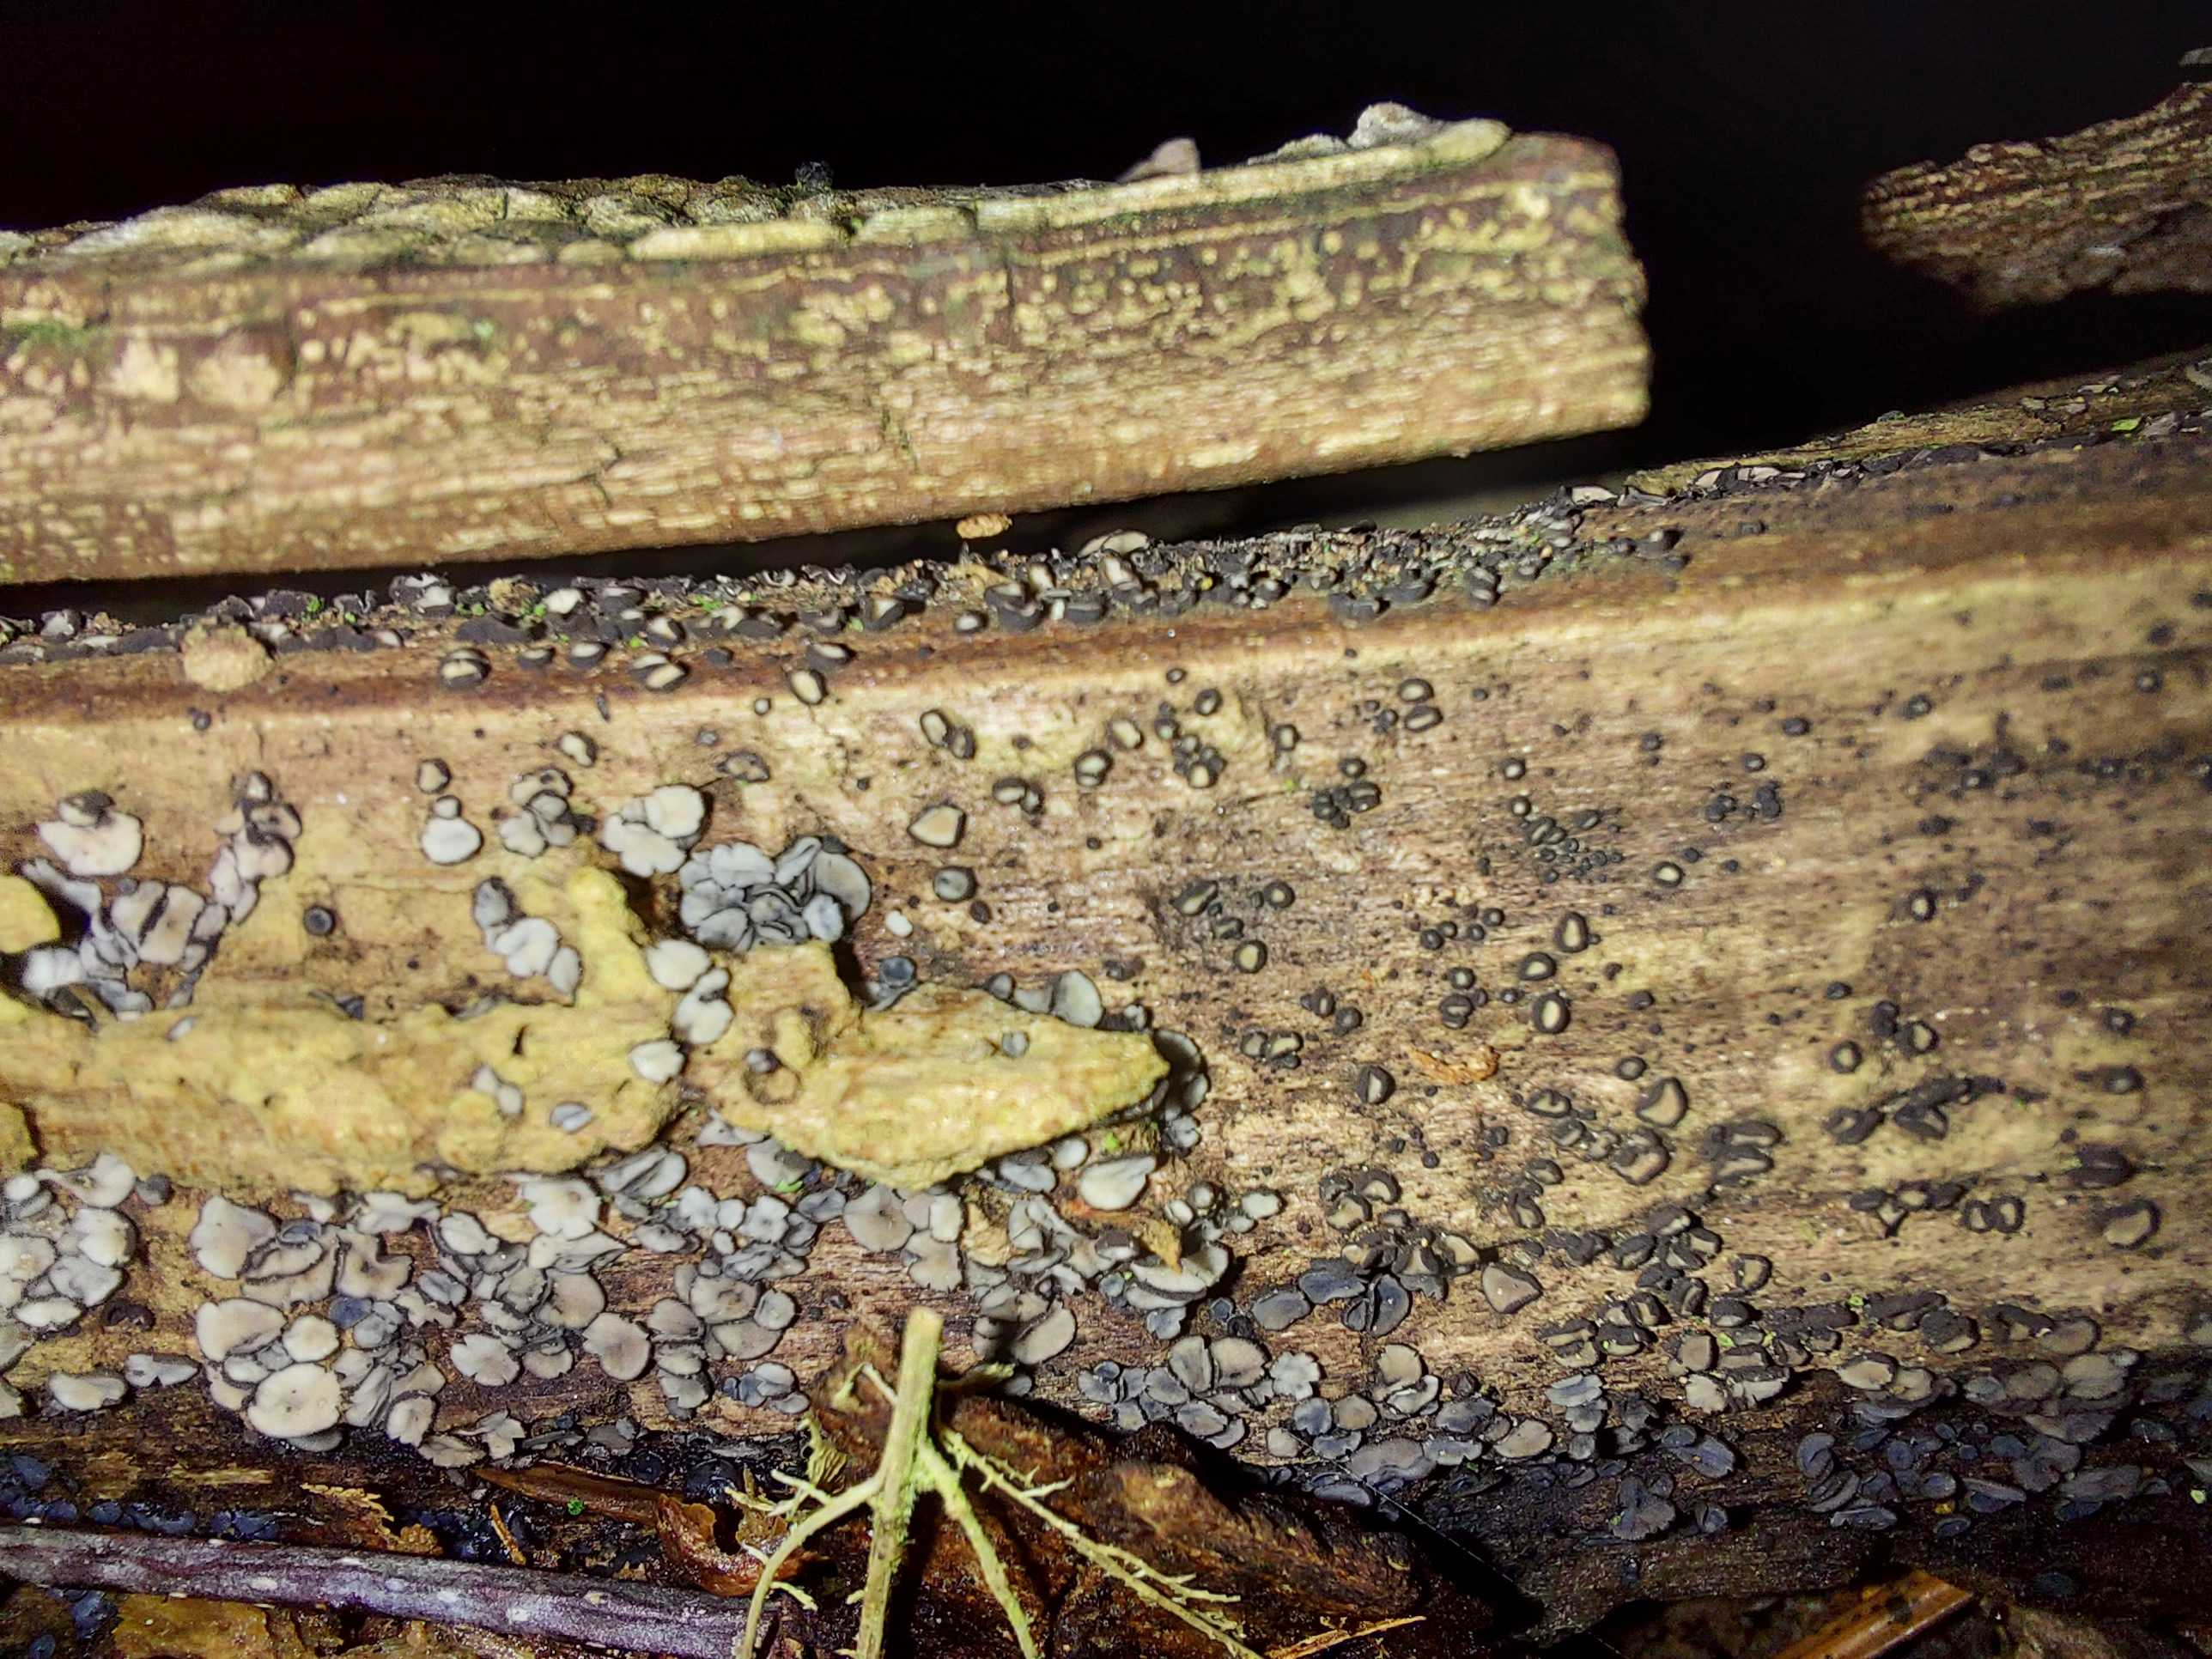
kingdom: Fungi
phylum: Ascomycota
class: Leotiomycetes
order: Helotiales
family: Mollisiaceae
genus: Mollisia
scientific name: Mollisia
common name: gråskive
